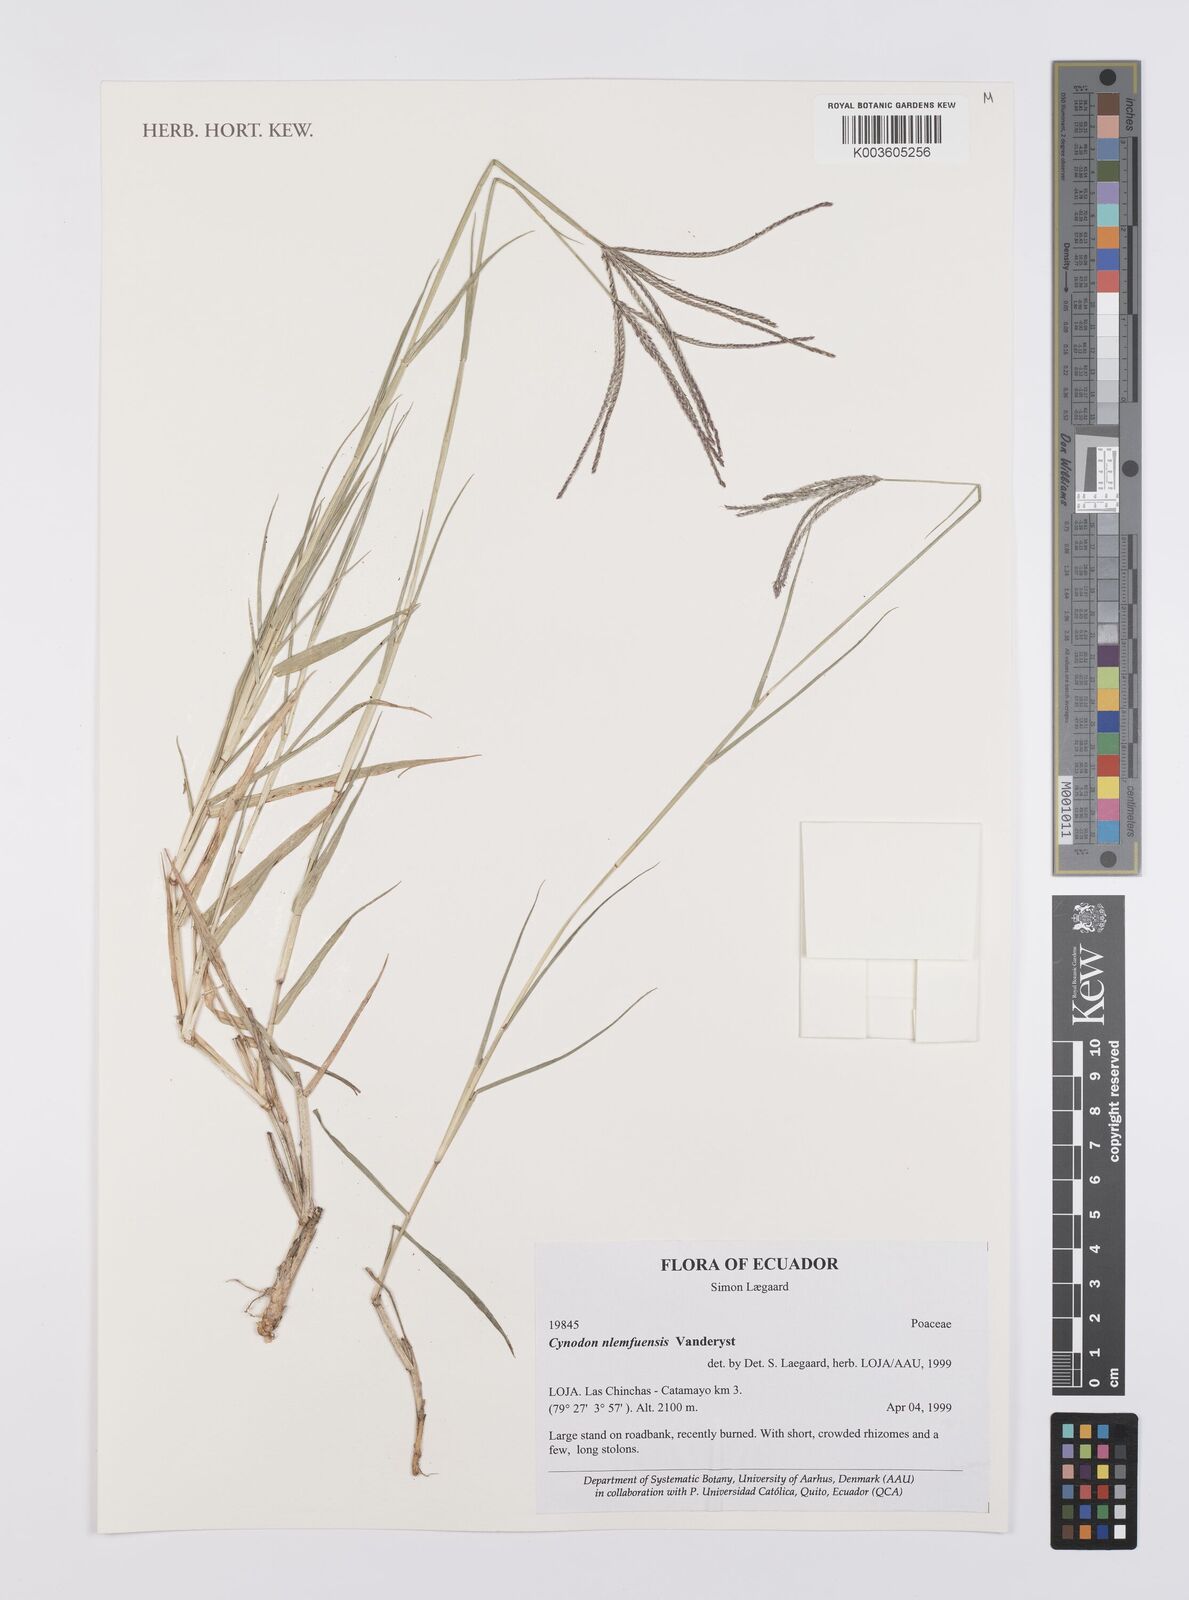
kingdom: Plantae
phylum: Tracheophyta
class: Liliopsida
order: Poales
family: Poaceae
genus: Cynodon
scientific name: Cynodon nlemfuensis
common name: African bermudagrass
